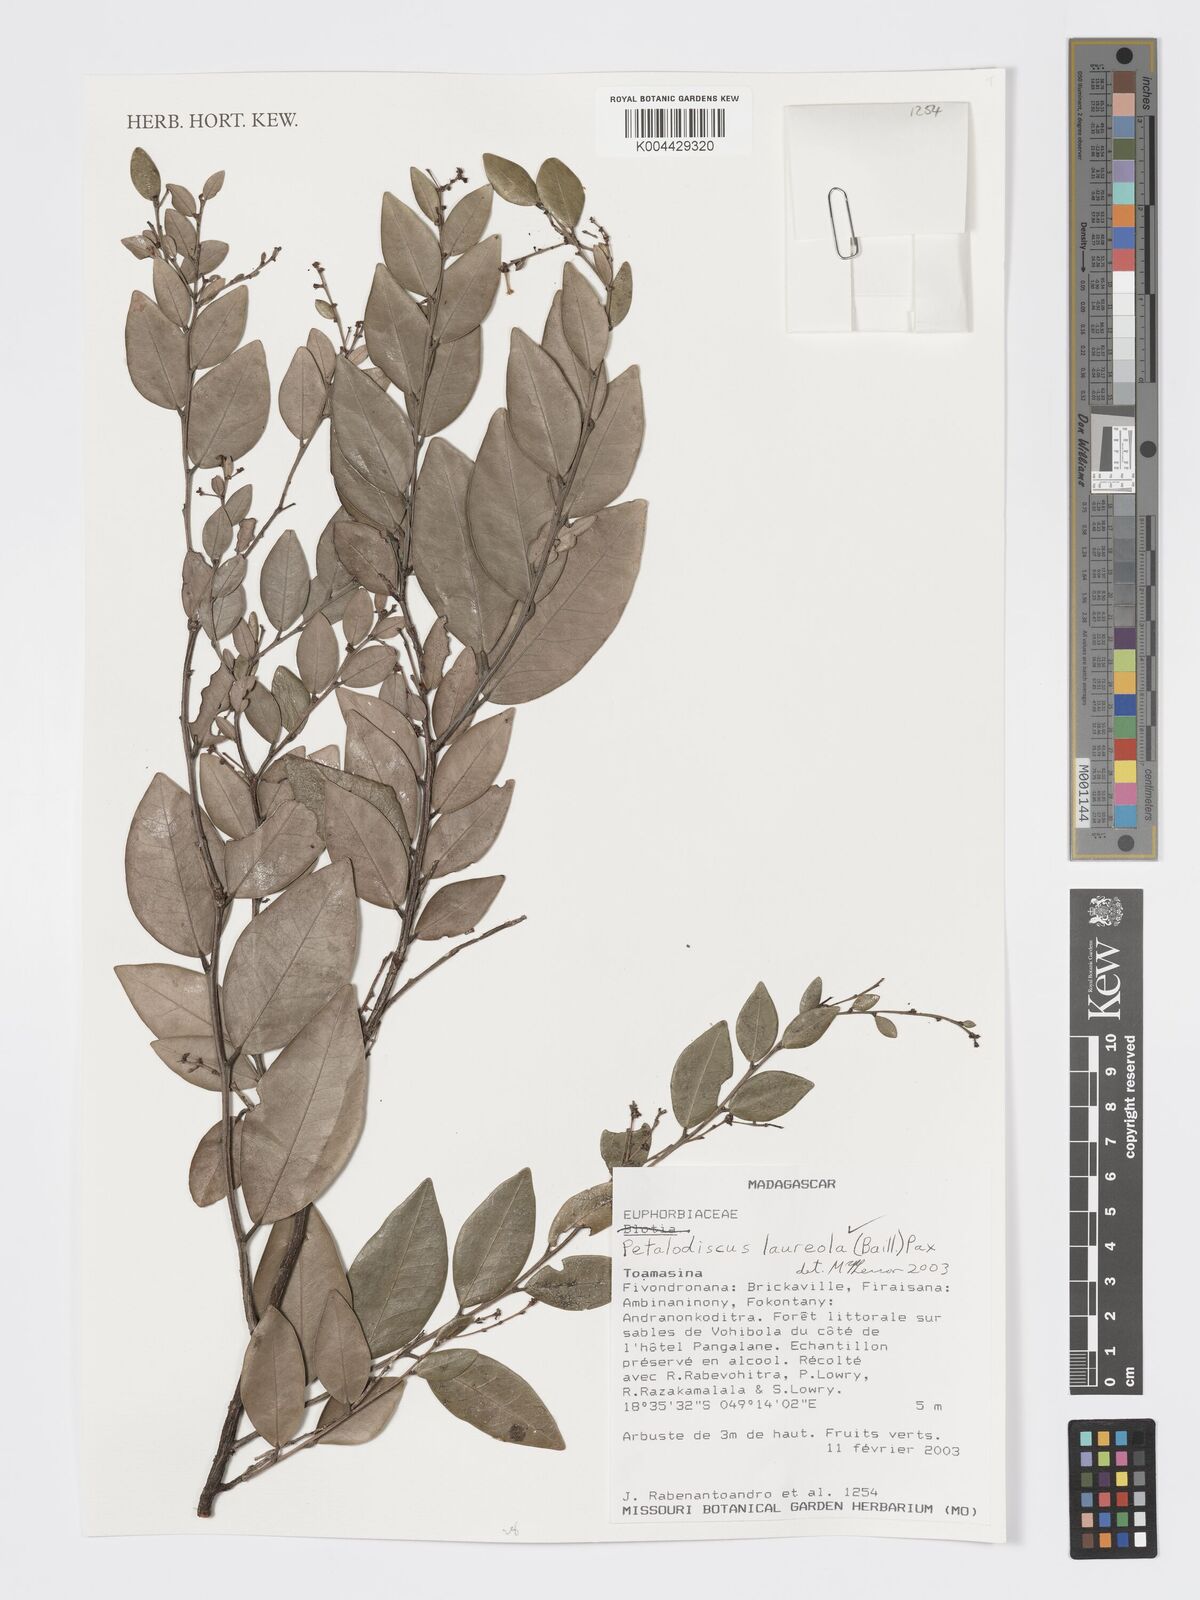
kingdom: Plantae
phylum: Tracheophyta
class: Magnoliopsida
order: Malpighiales
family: Phyllanthaceae
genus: Wielandia
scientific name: Wielandia laureola
